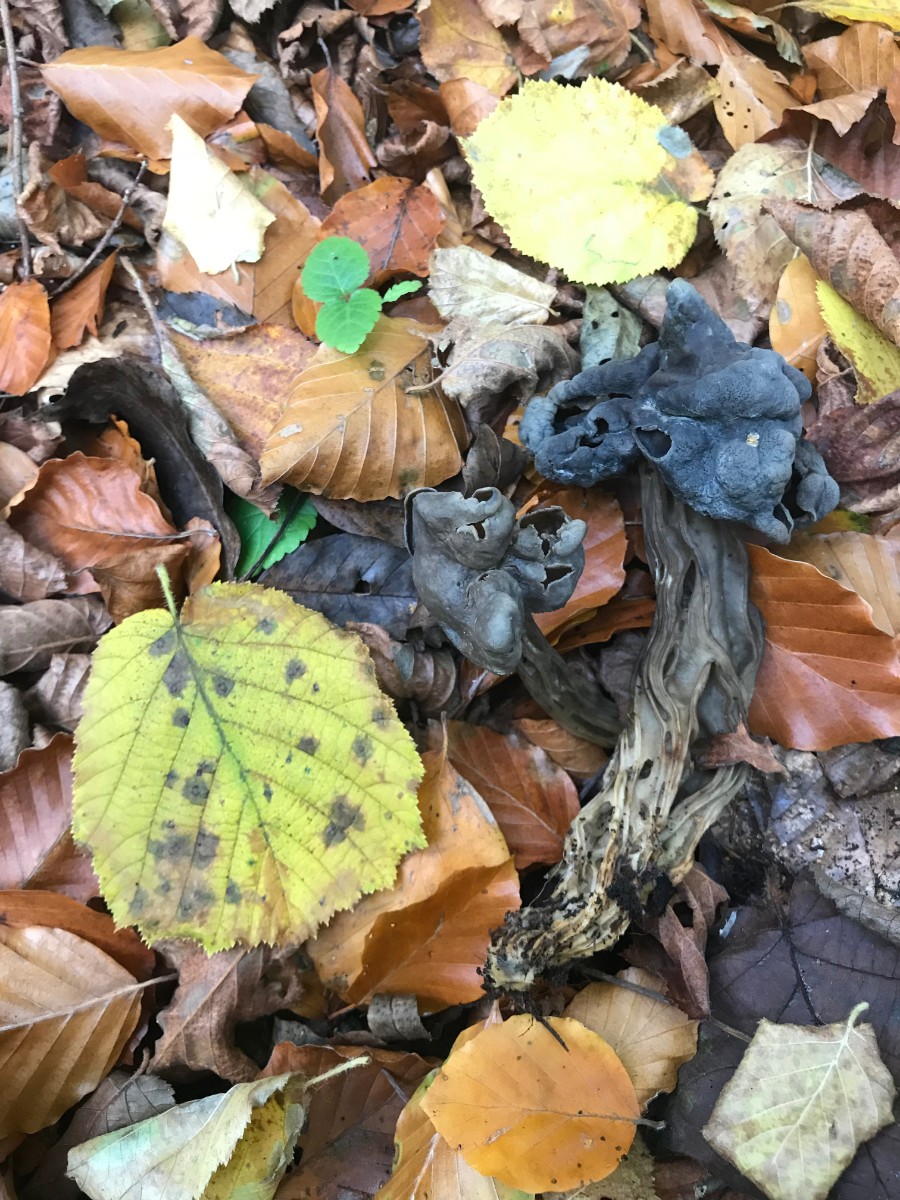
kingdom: Fungi
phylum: Ascomycota
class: Pezizomycetes
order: Pezizales
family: Helvellaceae
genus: Helvella
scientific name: Helvella lacunosa
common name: grubet foldhat
